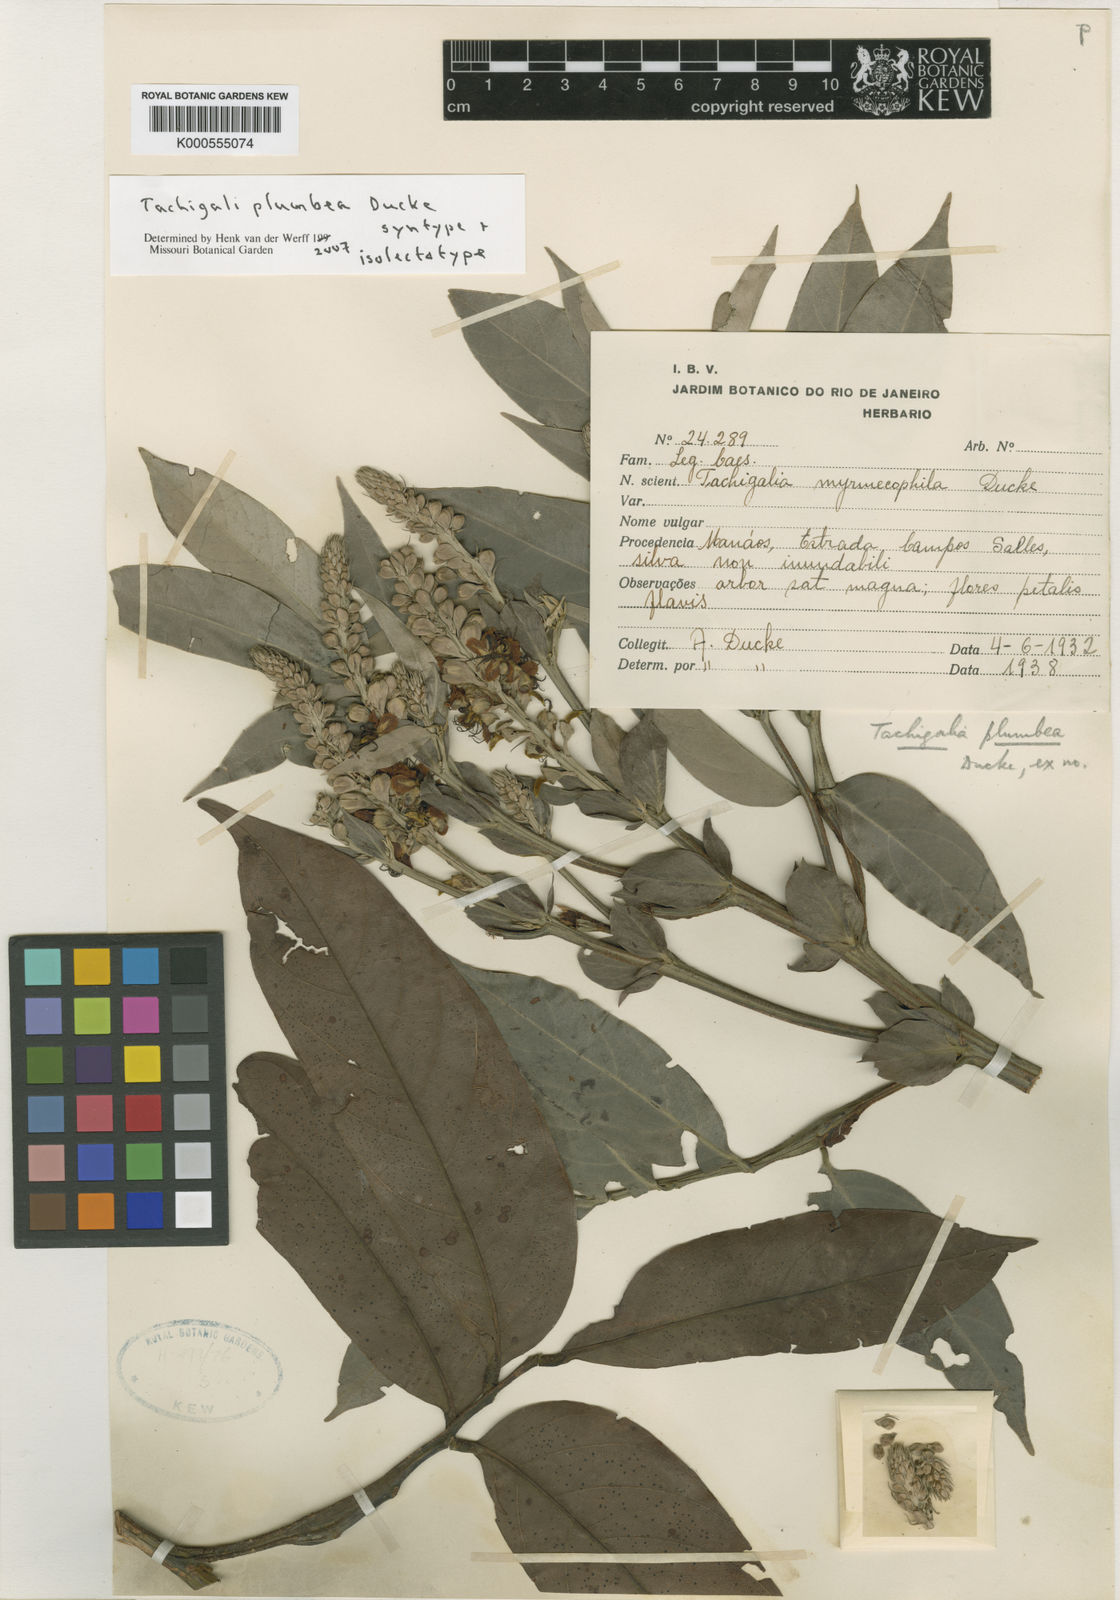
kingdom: Plantae
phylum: Tracheophyta
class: Magnoliopsida
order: Fabales
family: Fabaceae
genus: Tachigali
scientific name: Tachigali plumbea
